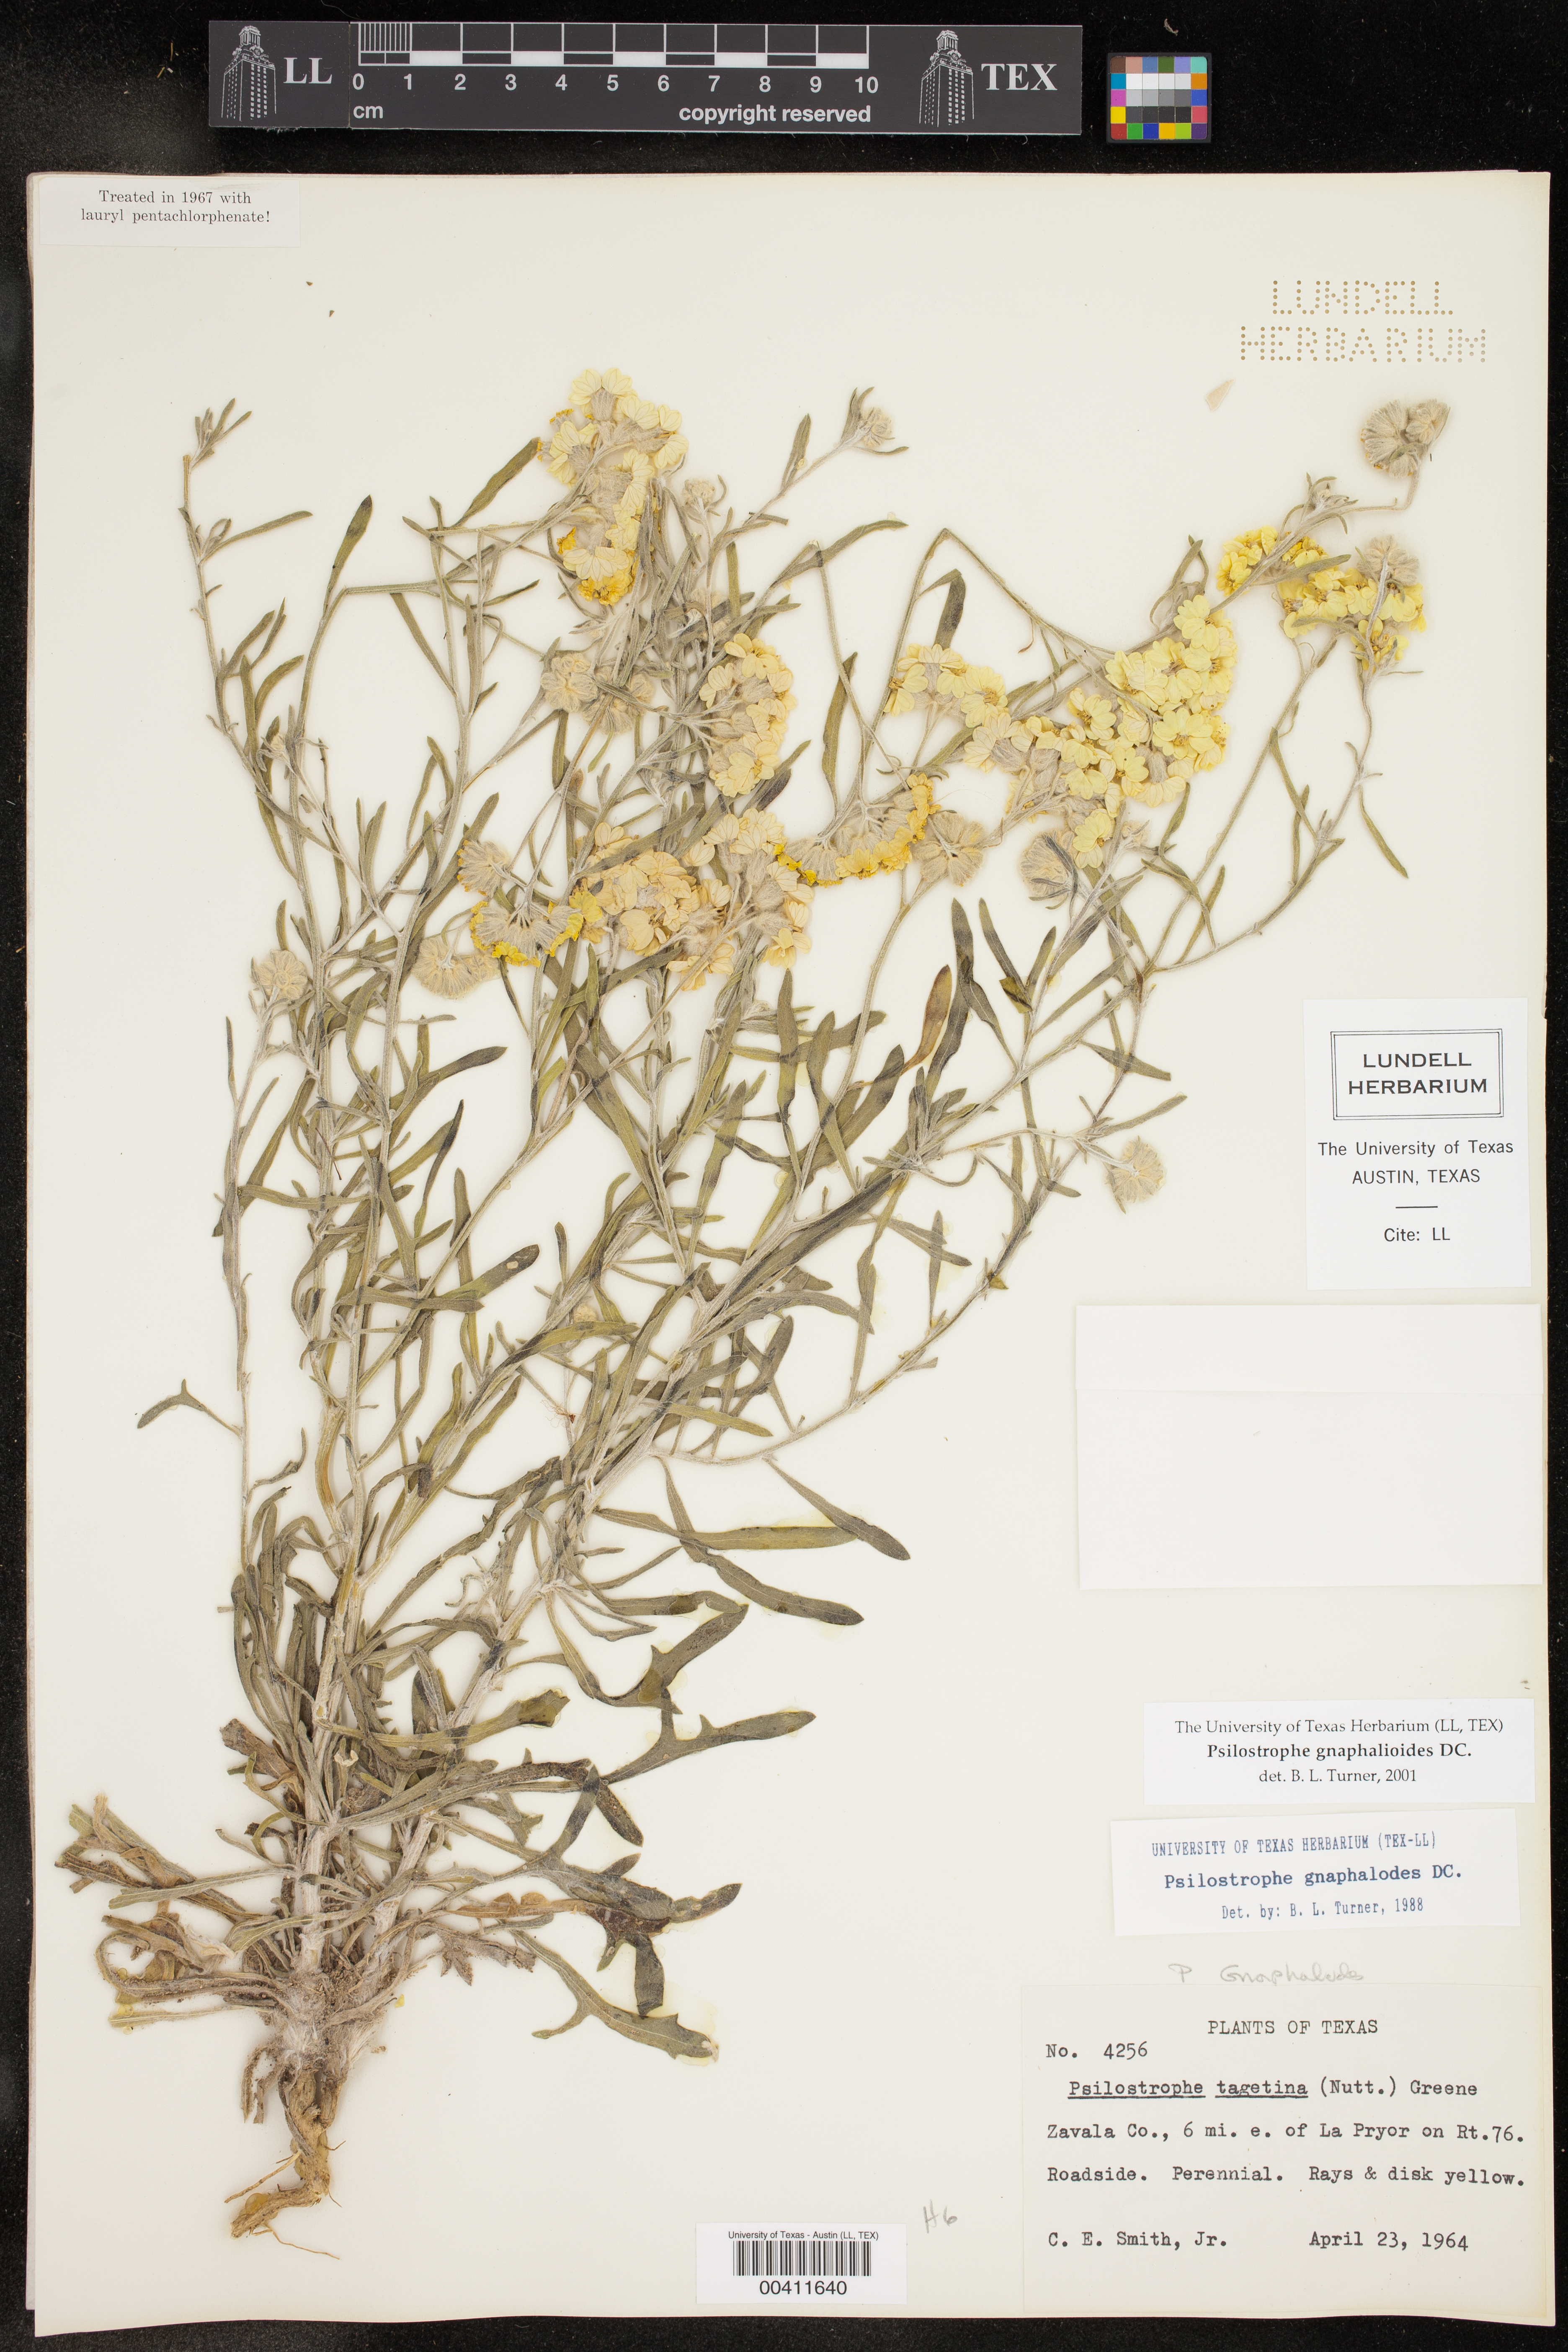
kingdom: Plantae
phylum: Tracheophyta
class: Magnoliopsida
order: Asterales
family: Asteraceae
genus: Psilostrophe
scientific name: Psilostrophe gnaphalioides
